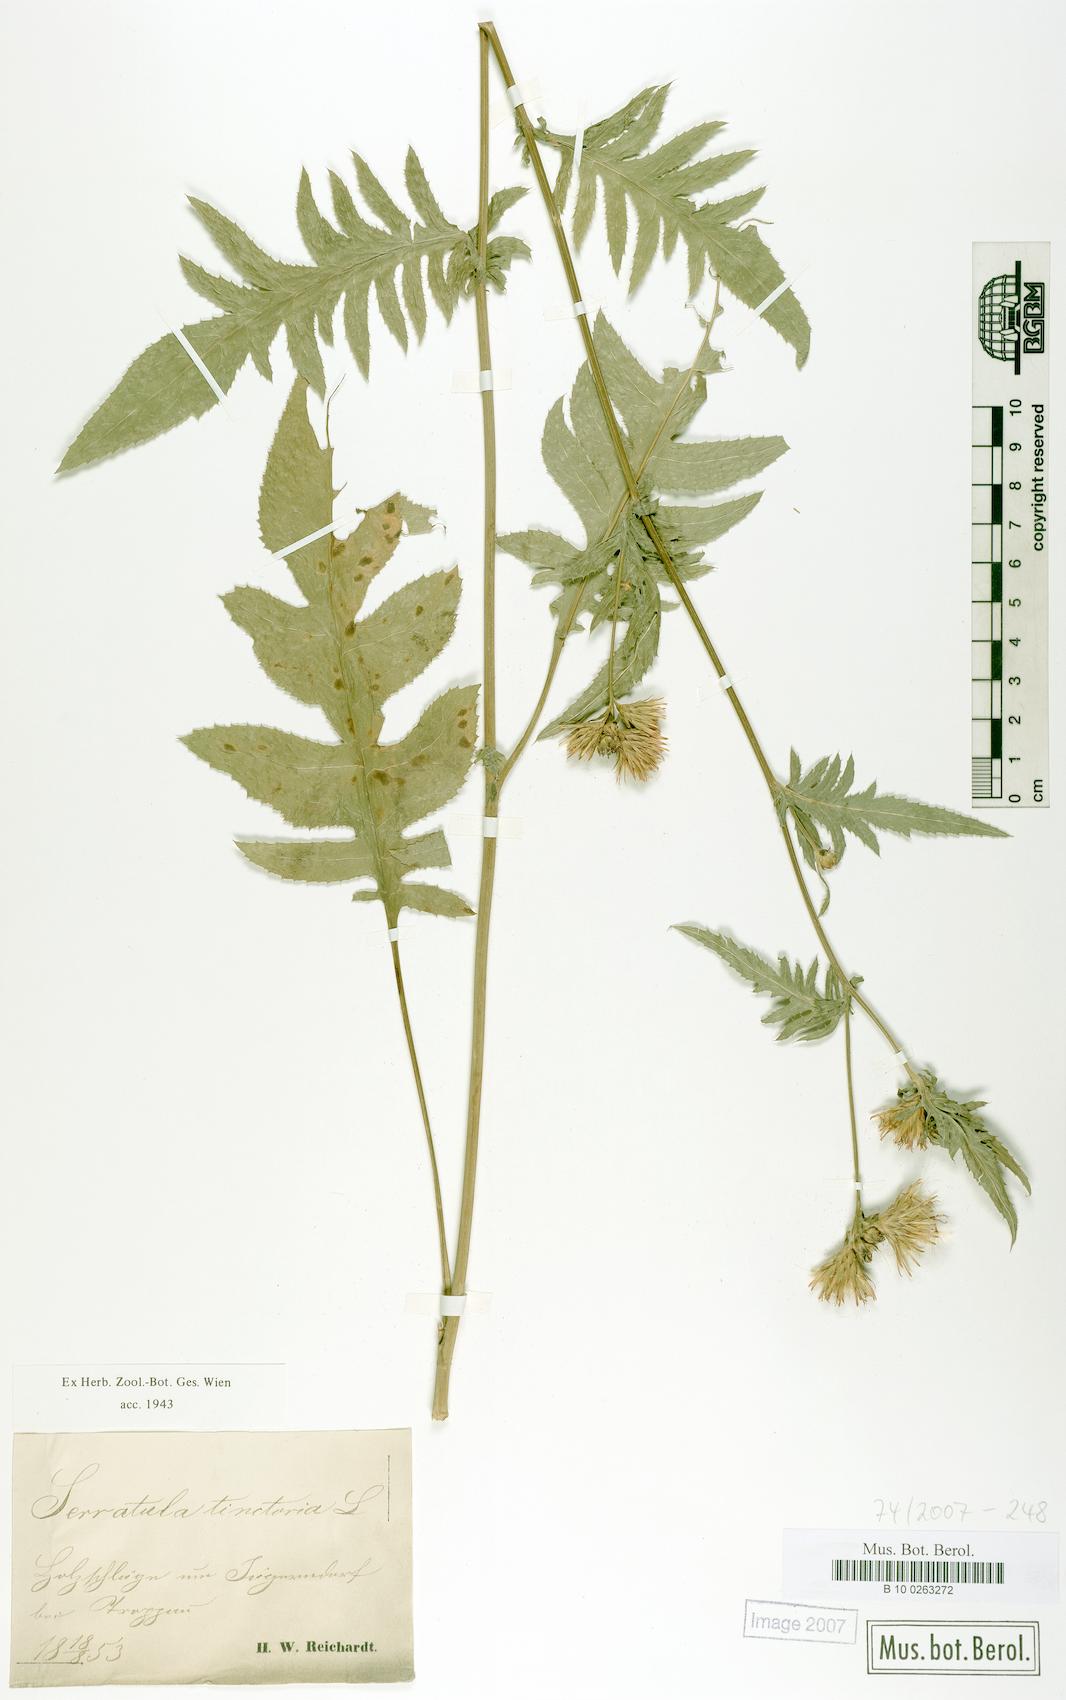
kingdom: Plantae
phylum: Tracheophyta
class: Magnoliopsida
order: Asterales
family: Asteraceae
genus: Serratula
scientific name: Serratula tinctoria
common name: Saw-wort
